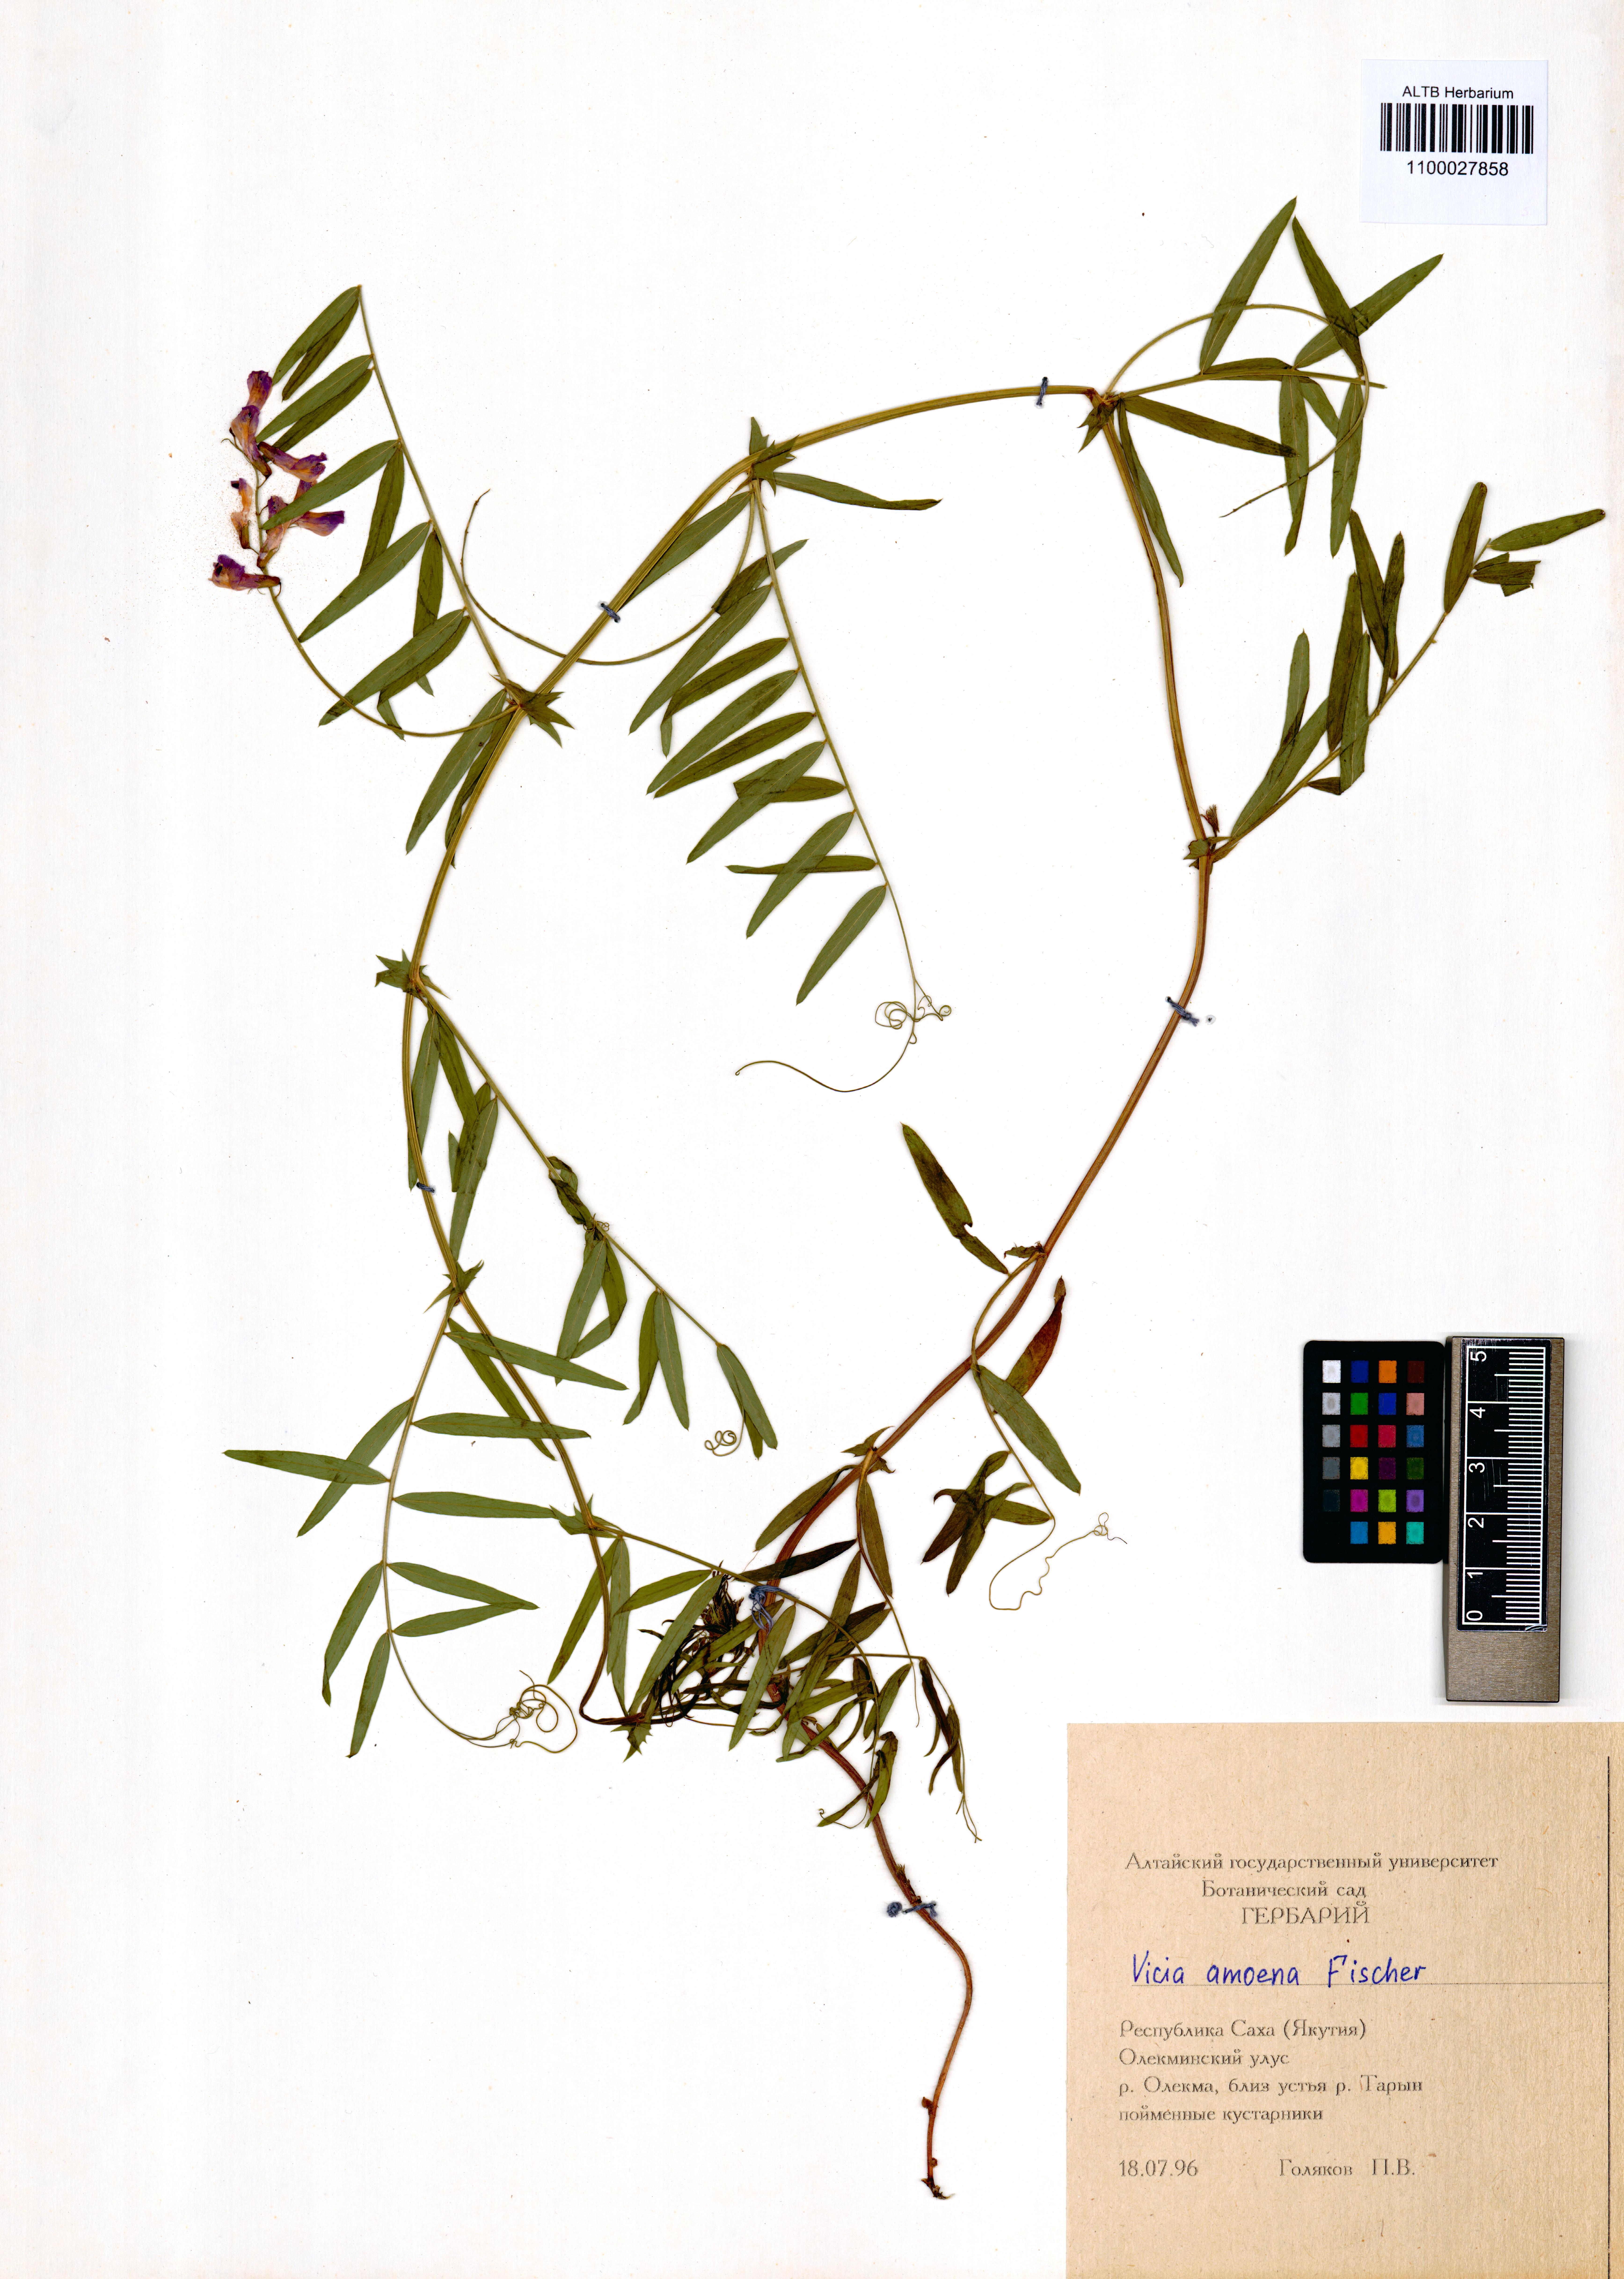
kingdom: Plantae
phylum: Tracheophyta
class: Magnoliopsida
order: Fabales
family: Fabaceae
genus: Vicia
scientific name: Vicia amoena
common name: Cheder ebs
